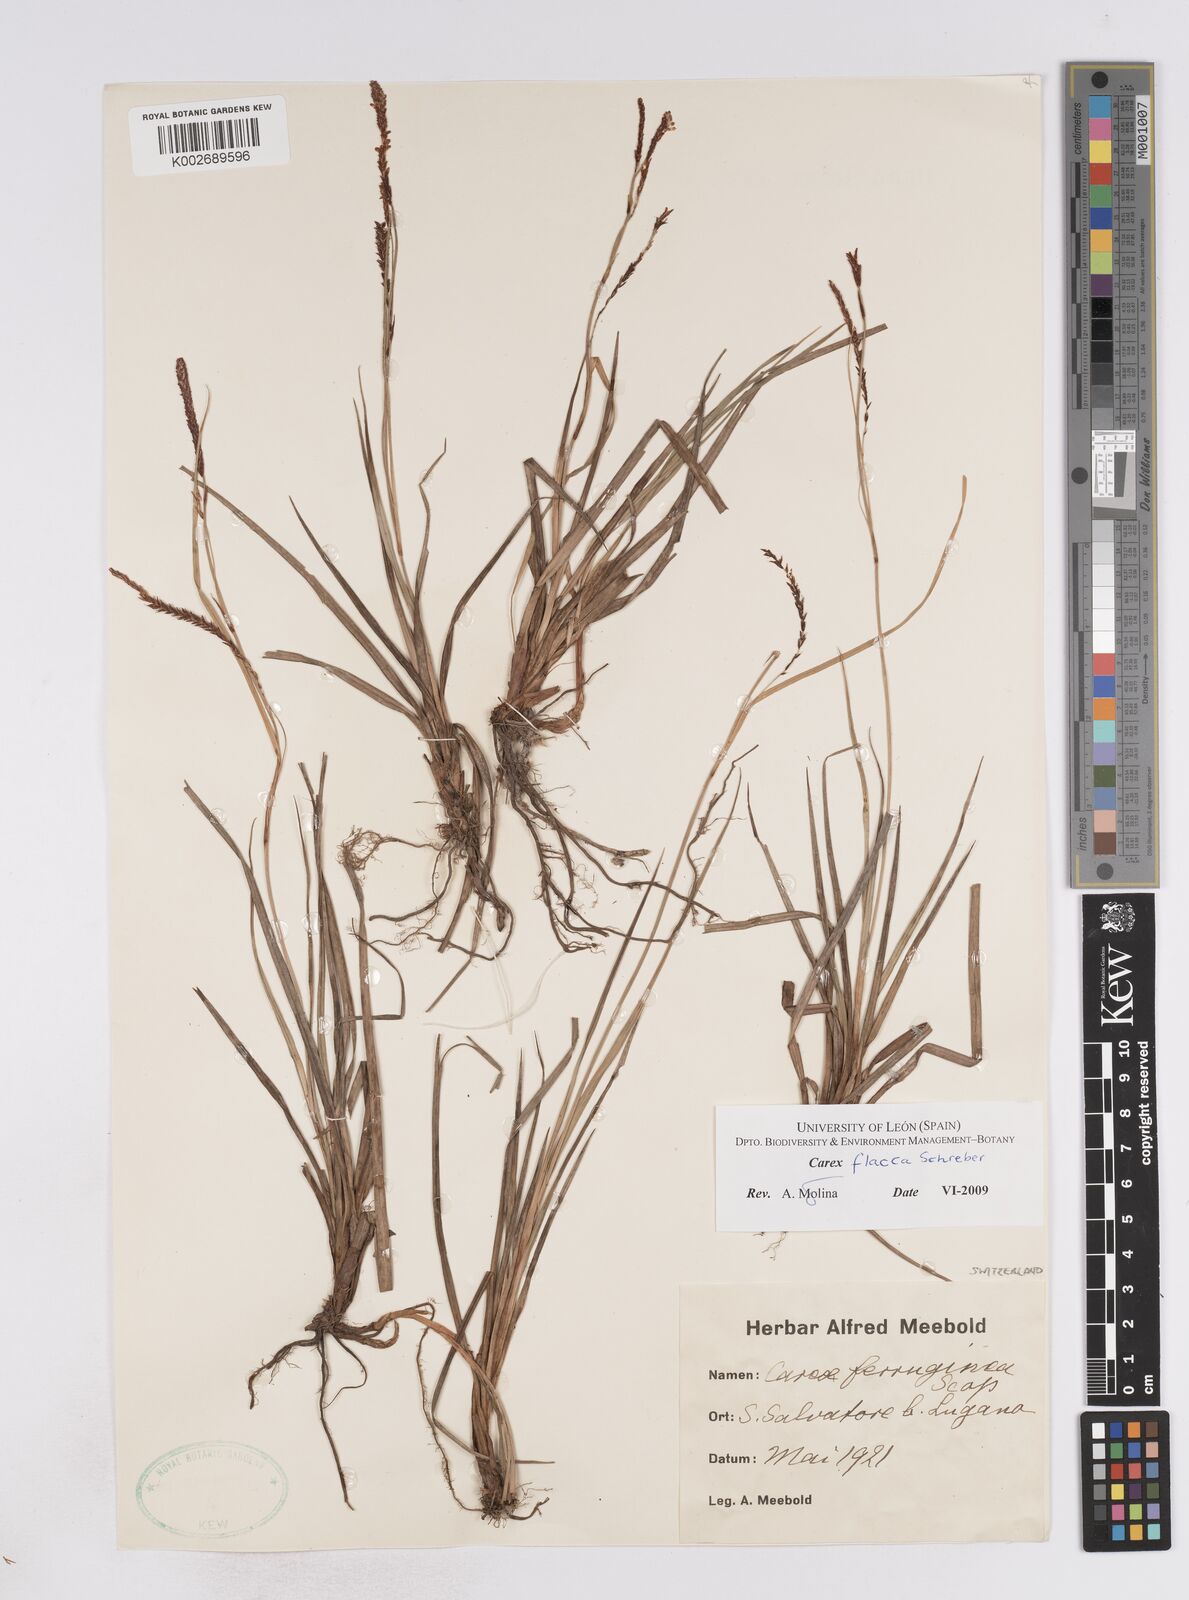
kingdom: Plantae
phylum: Tracheophyta
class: Liliopsida
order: Poales
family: Cyperaceae
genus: Carex
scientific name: Carex flacca
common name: Glaucous sedge
